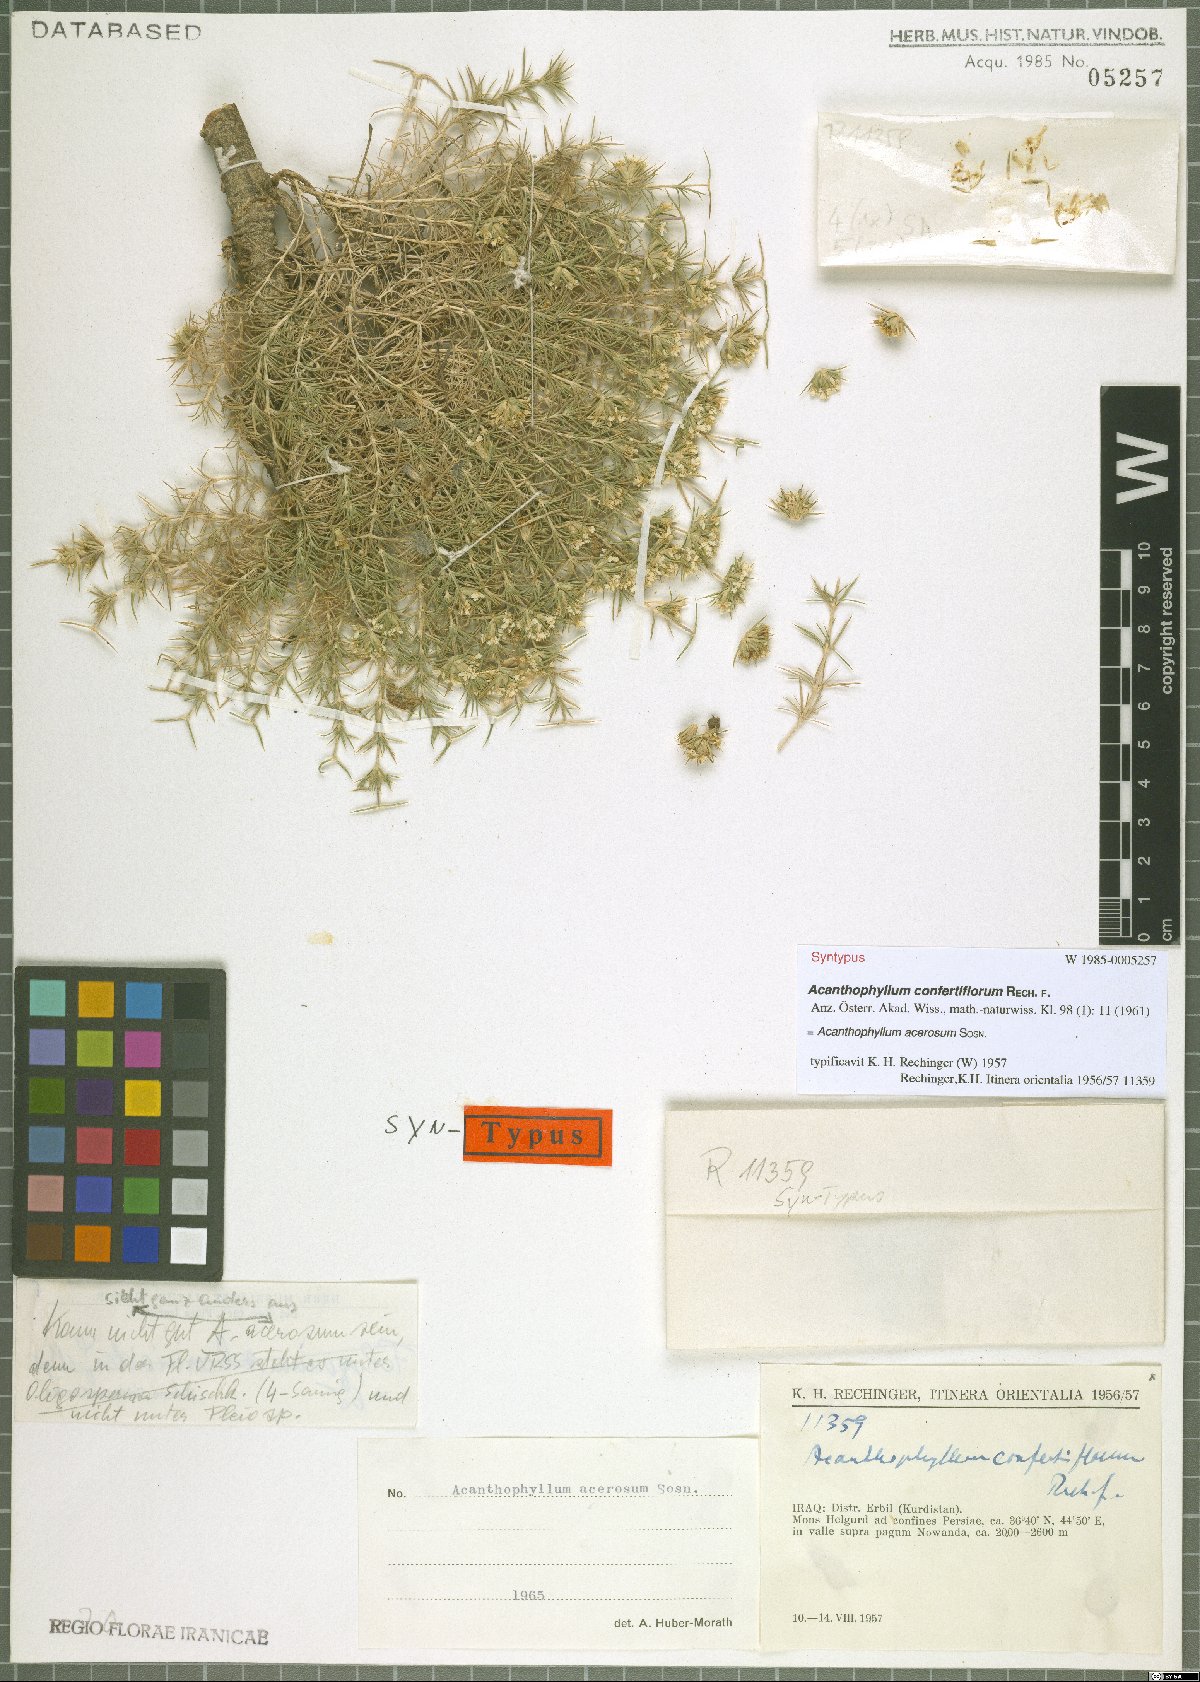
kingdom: Plantae
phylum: Tracheophyta
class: Magnoliopsida
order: Caryophyllales
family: Caryophyllaceae
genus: Acanthophyllum
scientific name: Acanthophyllum acerosum
